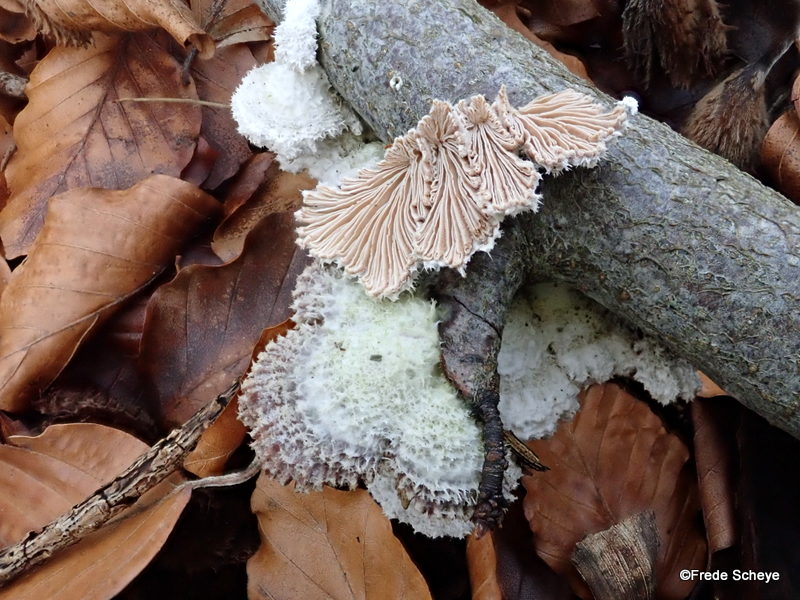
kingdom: Fungi
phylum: Basidiomycota
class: Agaricomycetes
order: Agaricales
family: Schizophyllaceae
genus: Schizophyllum
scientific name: Schizophyllum commune
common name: kløvblad
